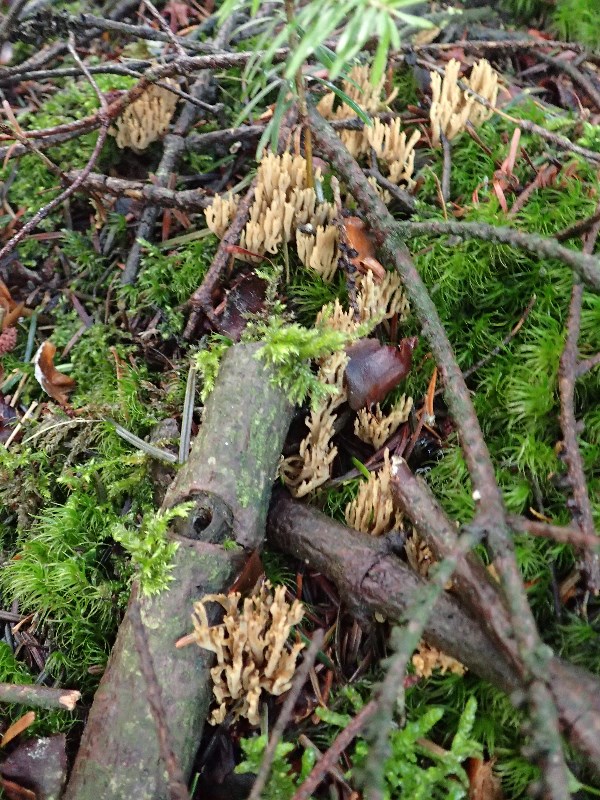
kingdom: Fungi
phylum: Basidiomycota
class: Agaricomycetes
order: Gomphales
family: Gomphaceae
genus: Phaeoclavulina
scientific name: Phaeoclavulina flaccida
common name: spinkel koralsvamp
